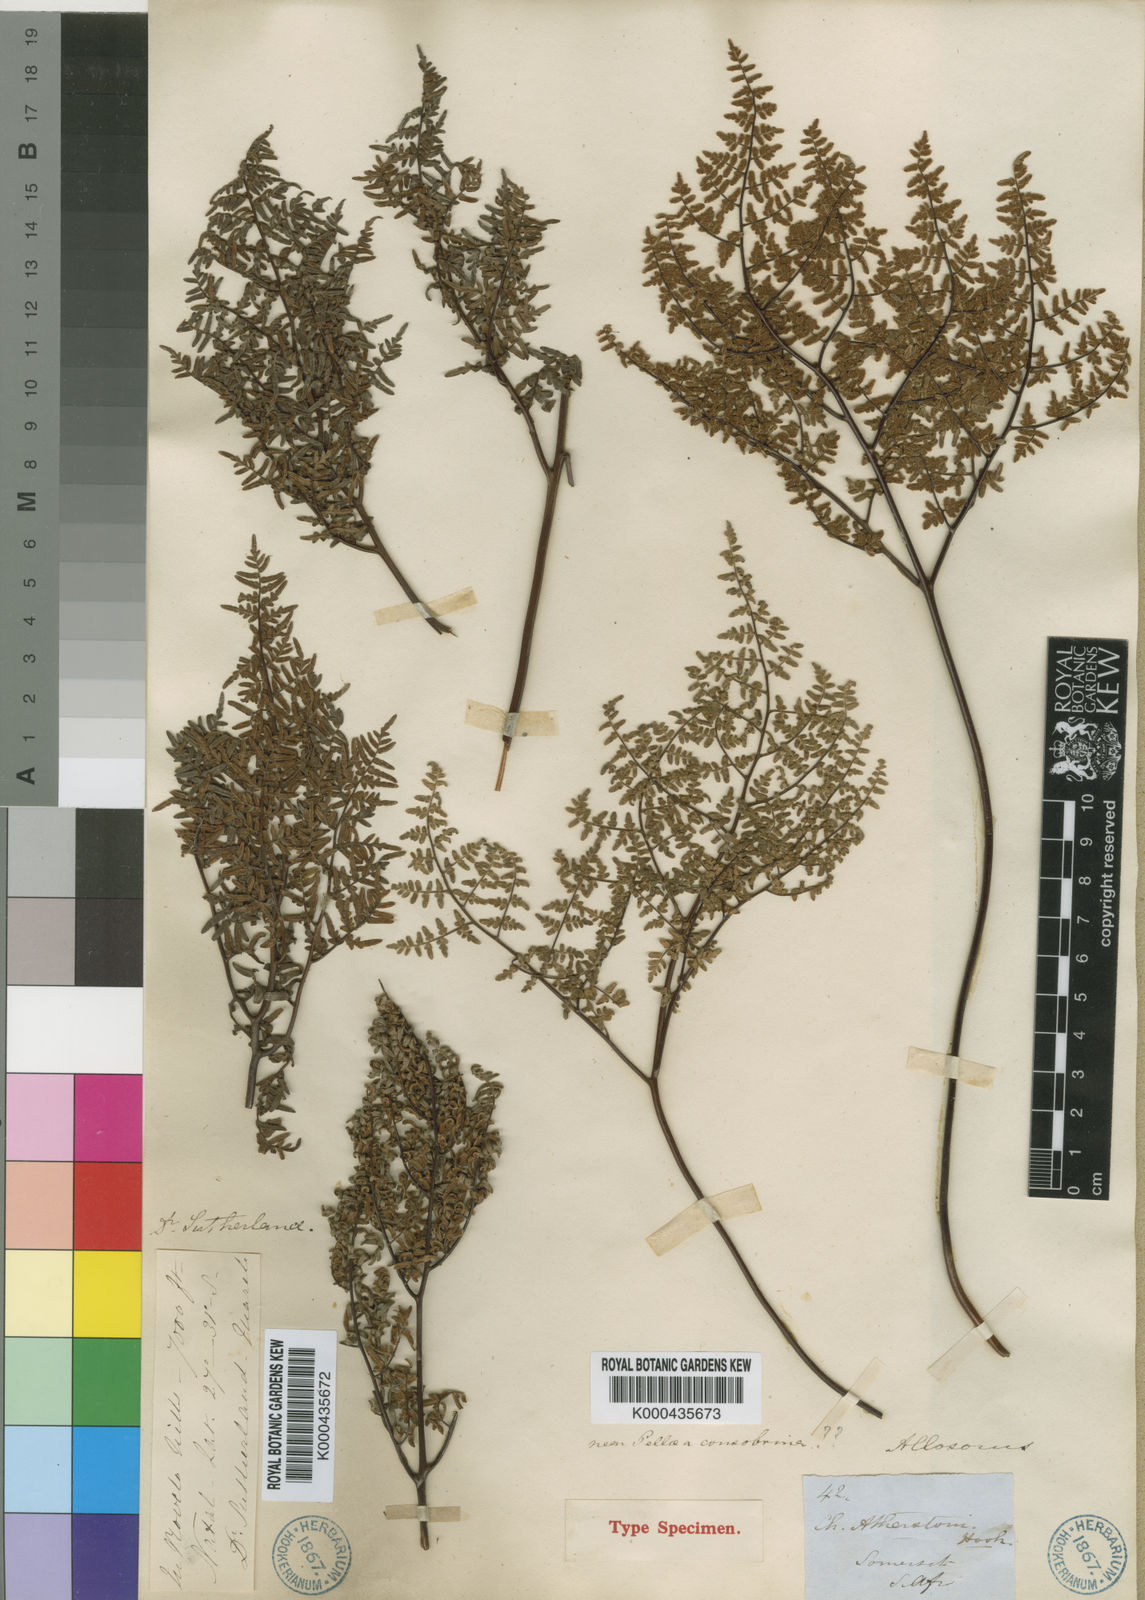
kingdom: Plantae
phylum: Tracheophyta
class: Polypodiopsida
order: Polypodiales
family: Pteridaceae
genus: Cheilanthes
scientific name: Cheilanthes quadripinnata
